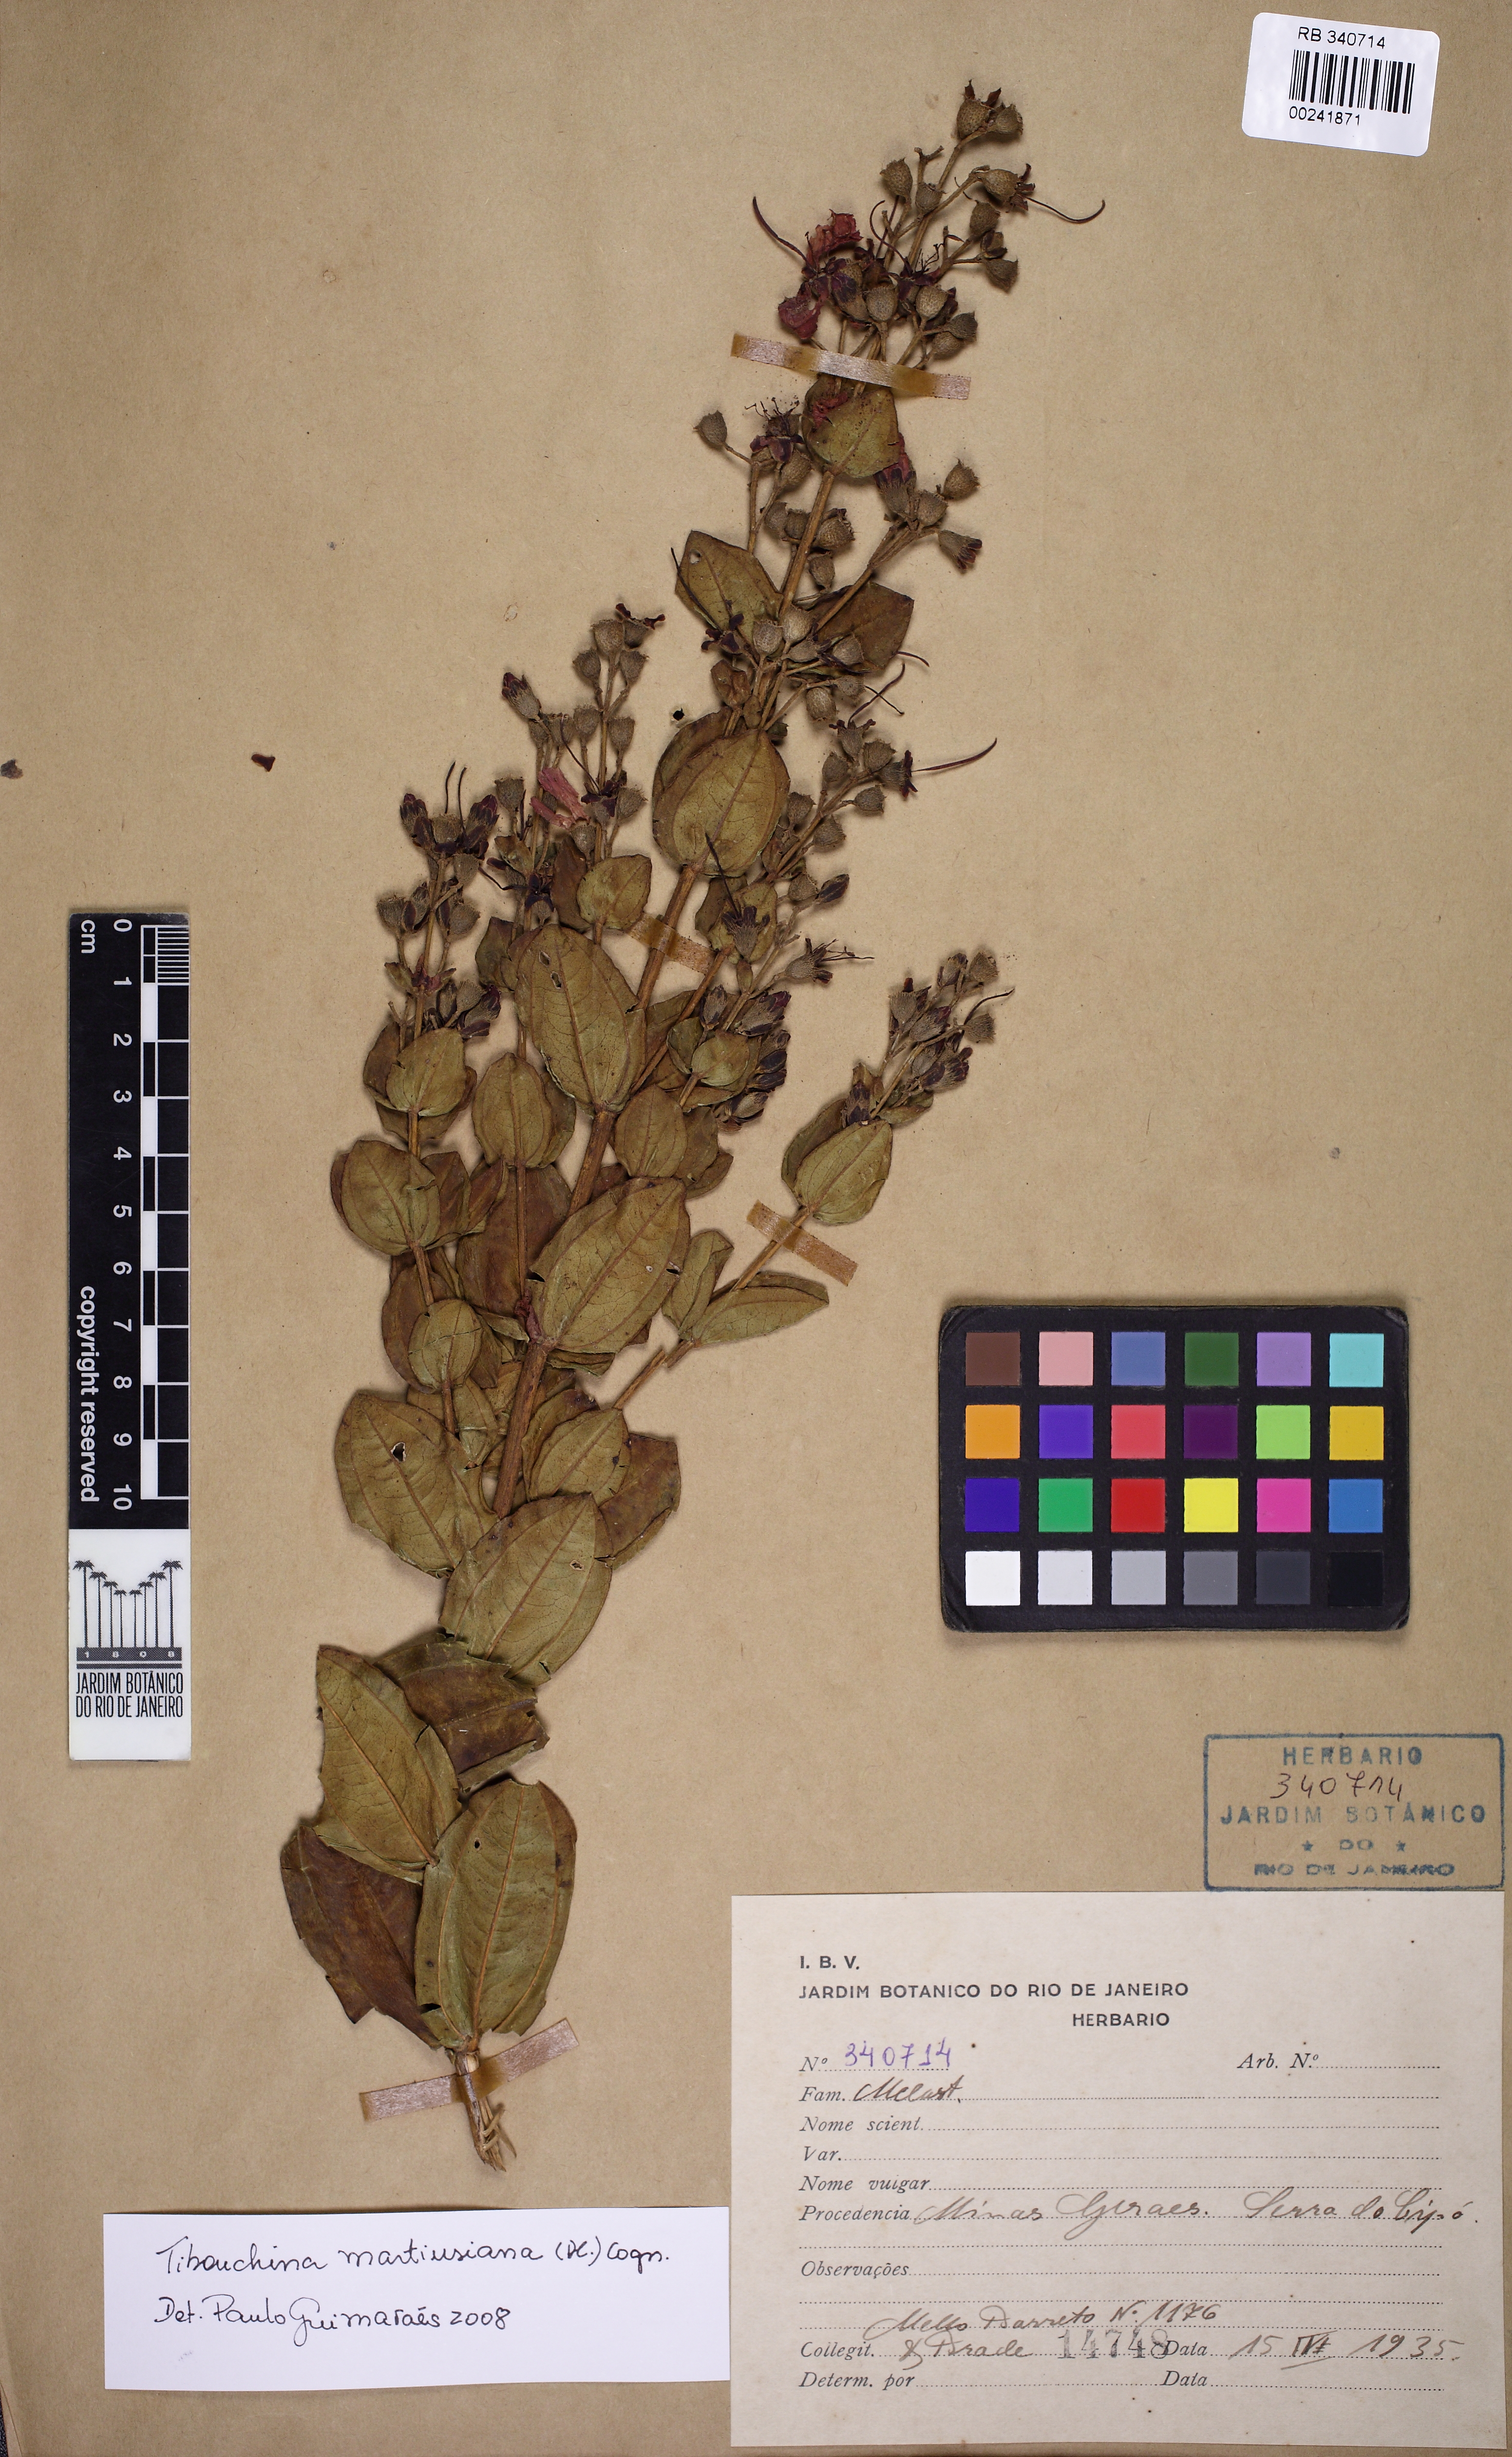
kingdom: Plantae
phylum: Tracheophyta
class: Magnoliopsida
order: Myrtales
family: Melastomataceae
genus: Pleroma
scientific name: Pleroma martiusianum
